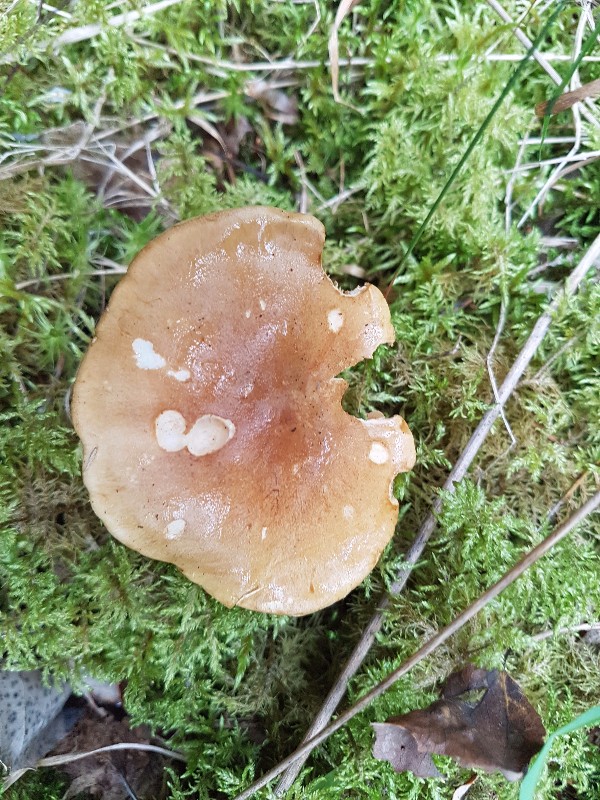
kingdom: Fungi
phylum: Basidiomycota
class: Agaricomycetes
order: Agaricales
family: Cortinariaceae
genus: Phlegmacium
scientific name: Phlegmacium cliduchus
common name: majs-slørhat
